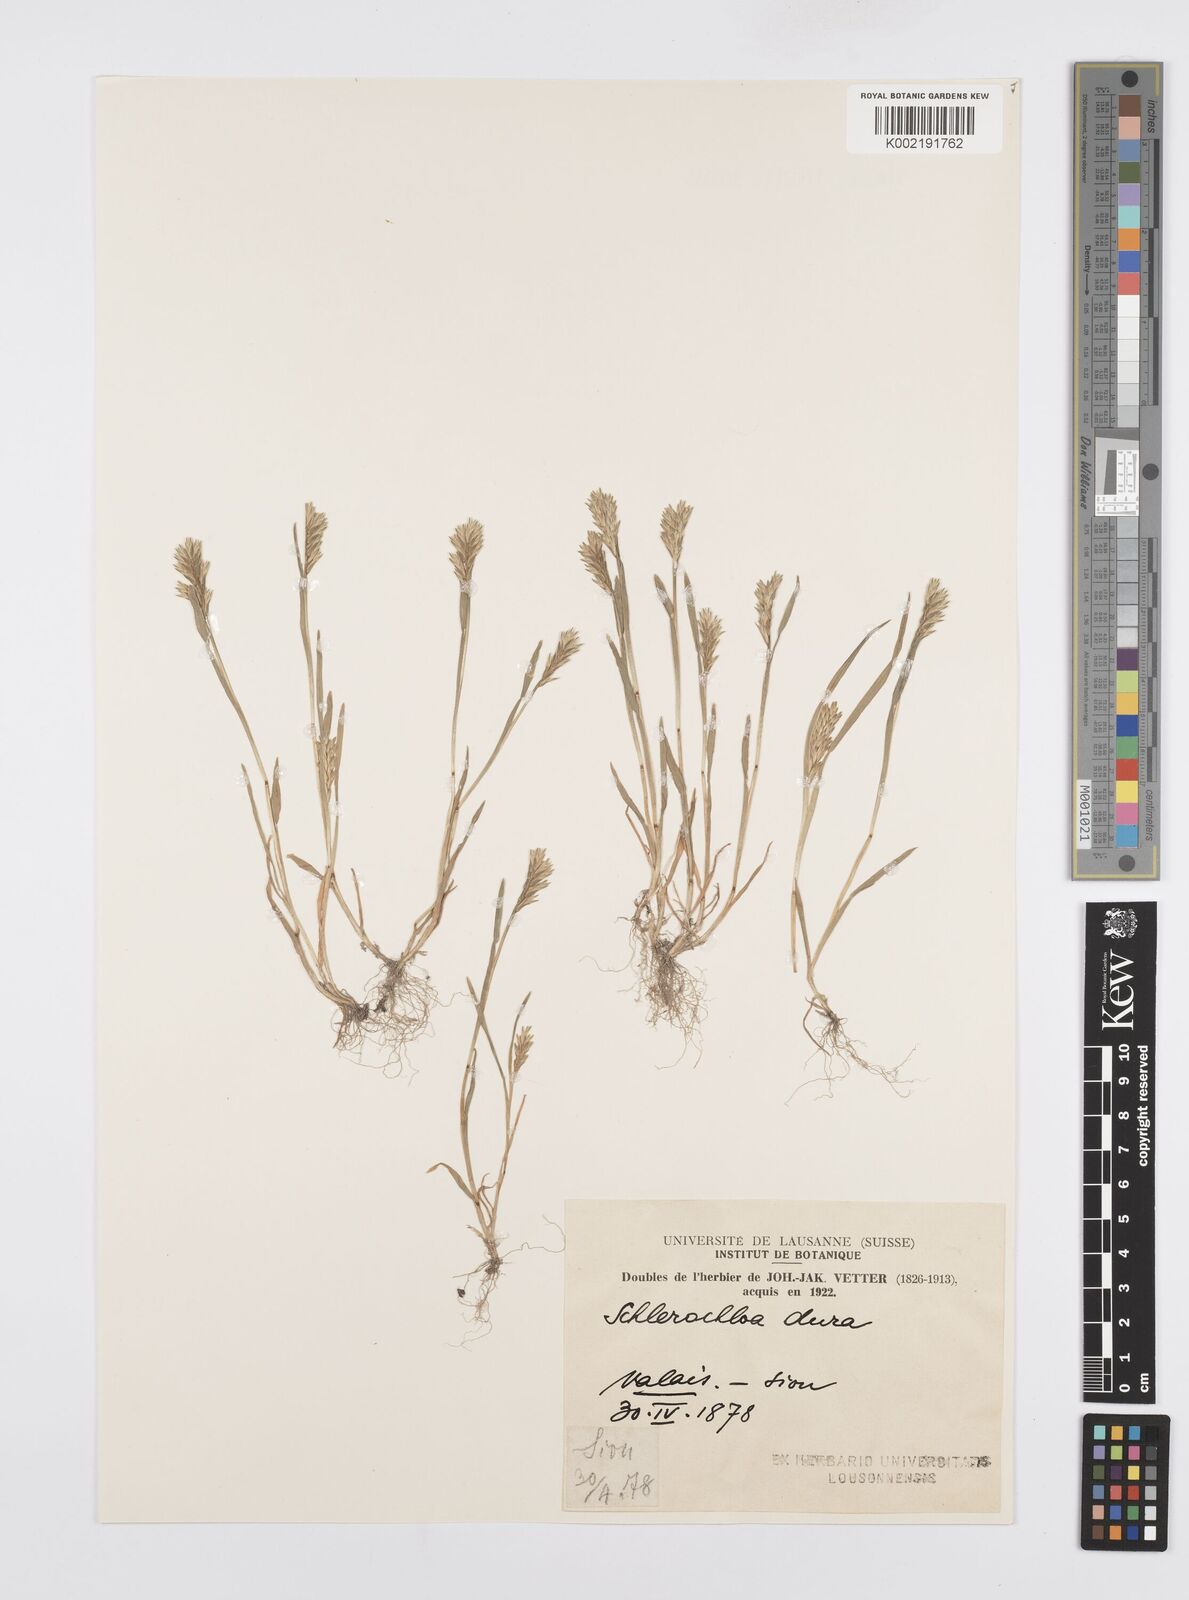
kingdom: Plantae
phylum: Tracheophyta
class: Liliopsida
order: Poales
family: Poaceae
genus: Sclerochloa
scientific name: Sclerochloa dura
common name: Common hardgrass
